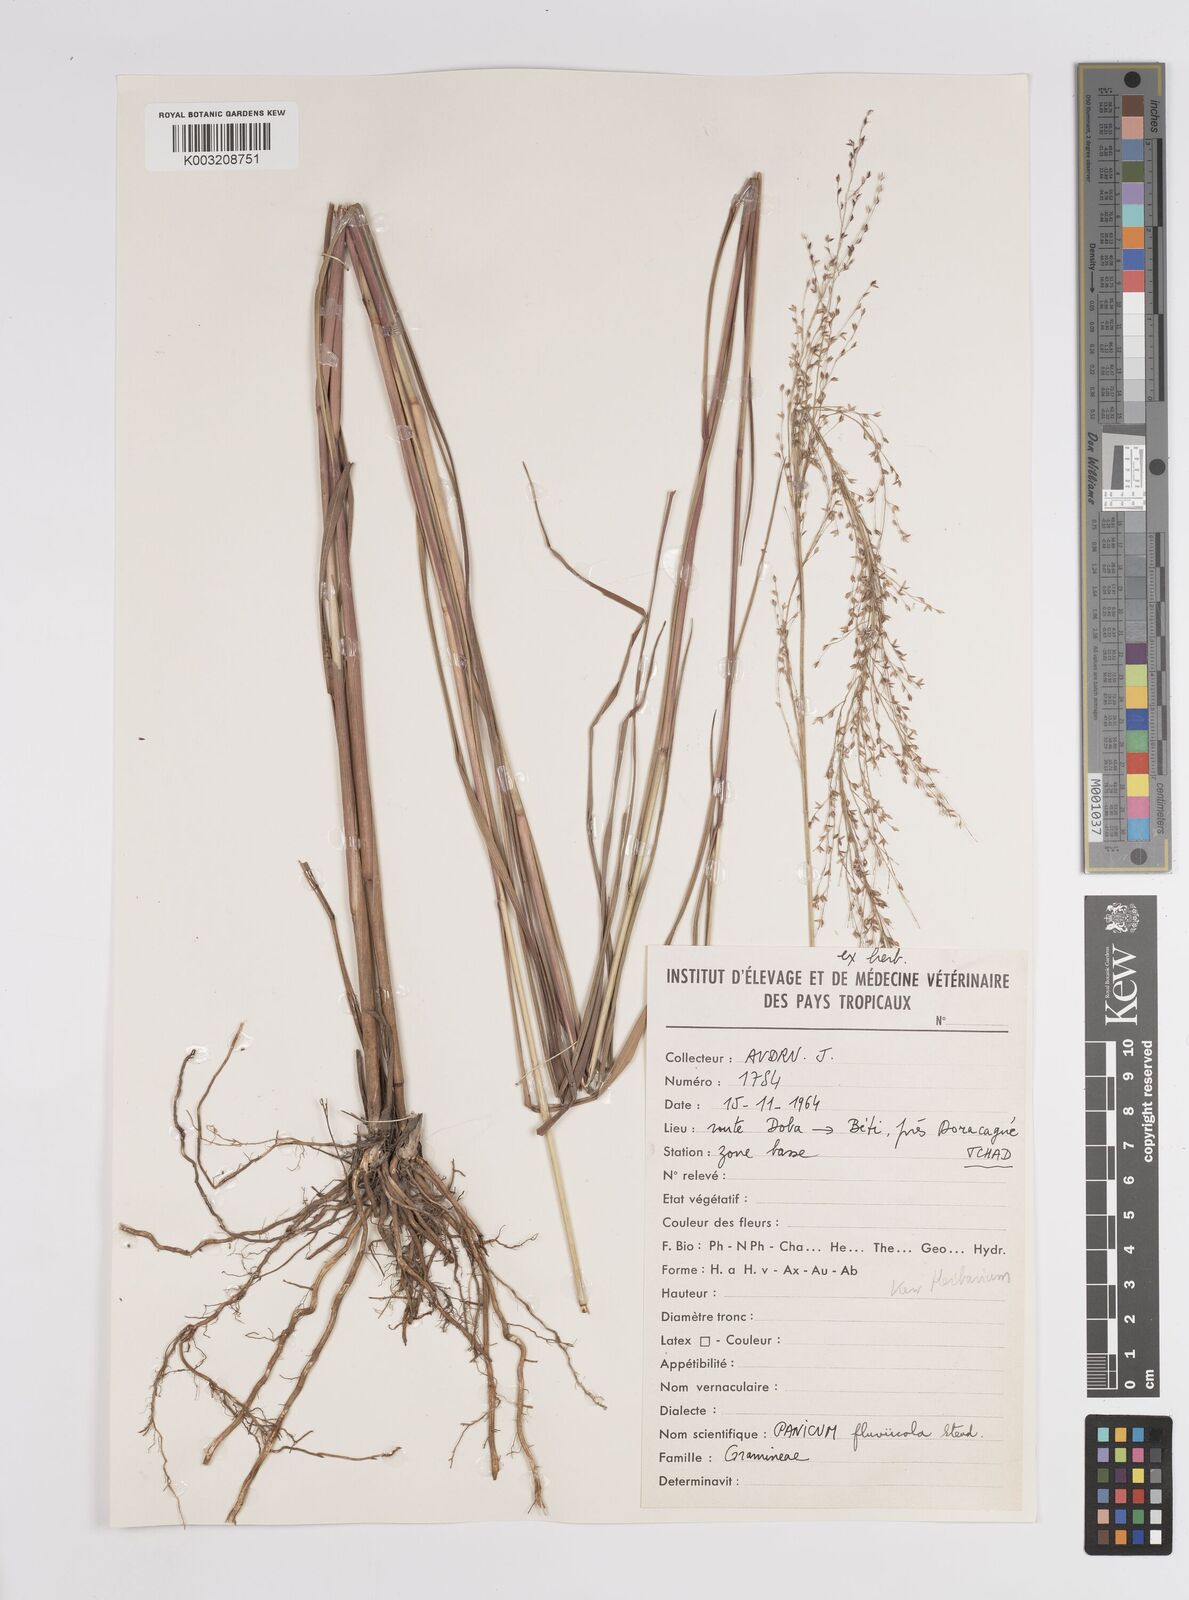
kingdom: Plantae
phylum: Tracheophyta
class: Liliopsida
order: Poales
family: Poaceae
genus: Panicum
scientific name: Panicum fluviicola
